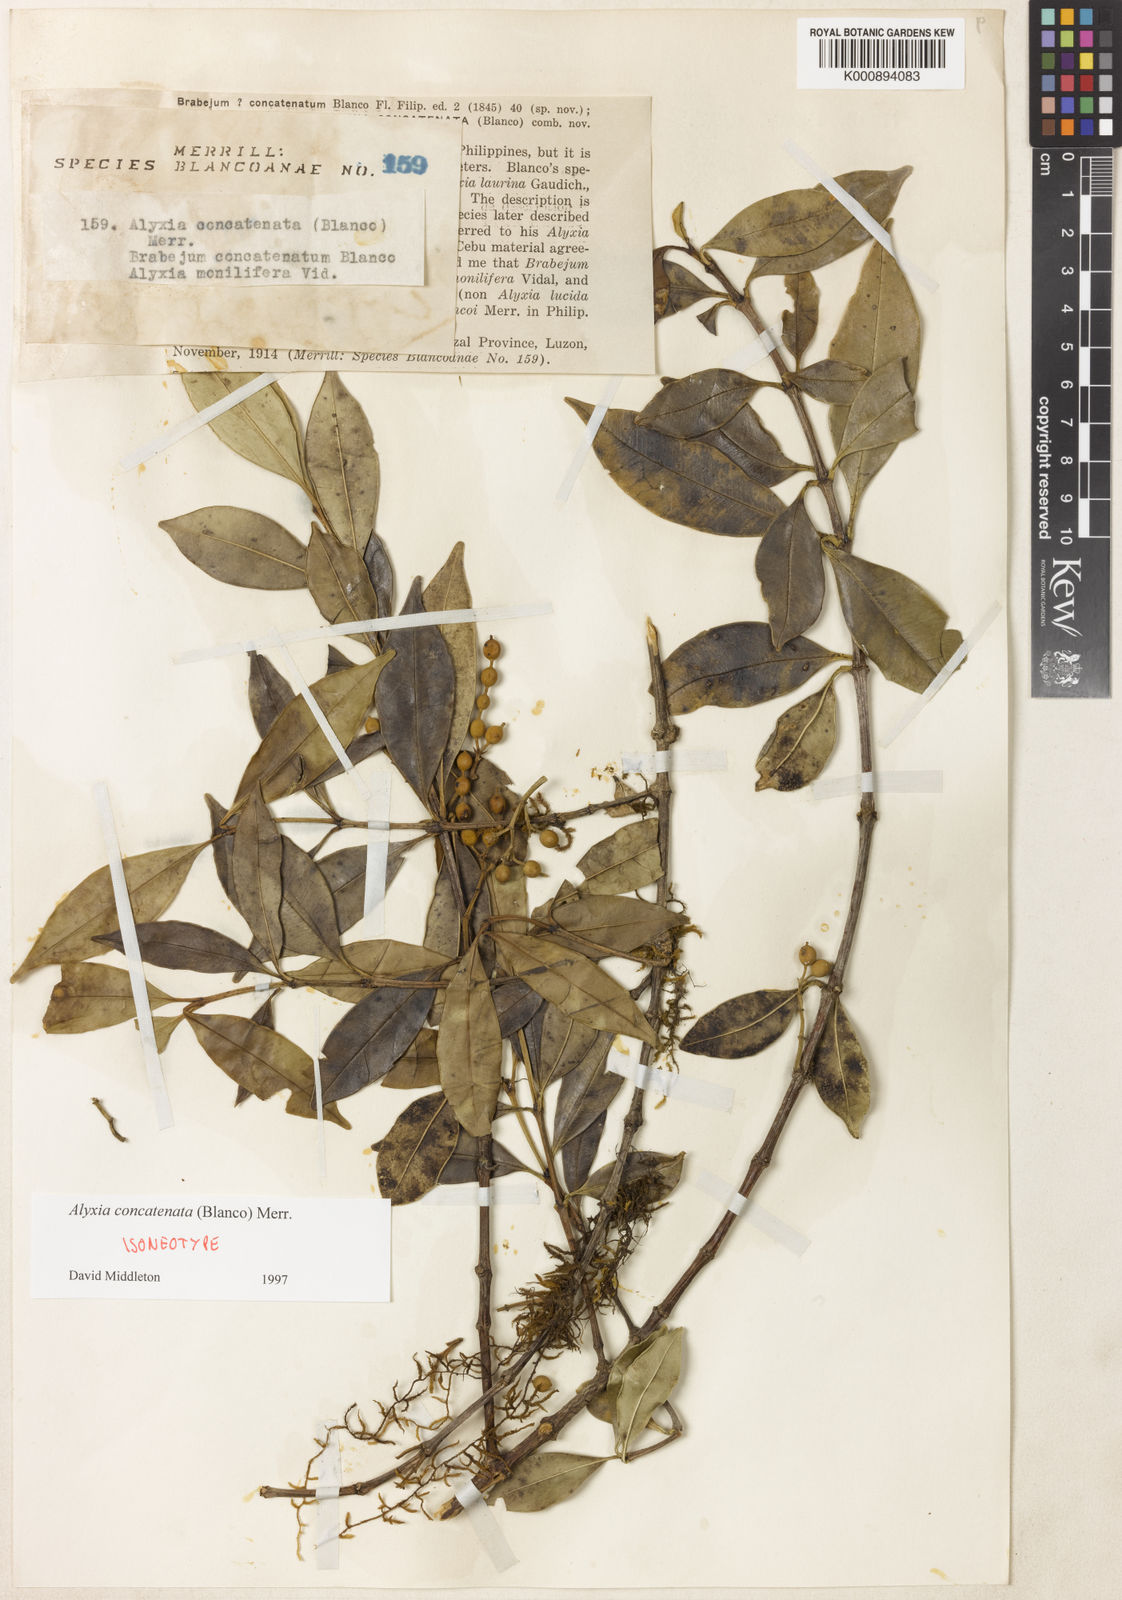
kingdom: Plantae
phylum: Tracheophyta
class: Magnoliopsida
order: Gentianales
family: Apocynaceae
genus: Alyxia
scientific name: Alyxia concatenata
